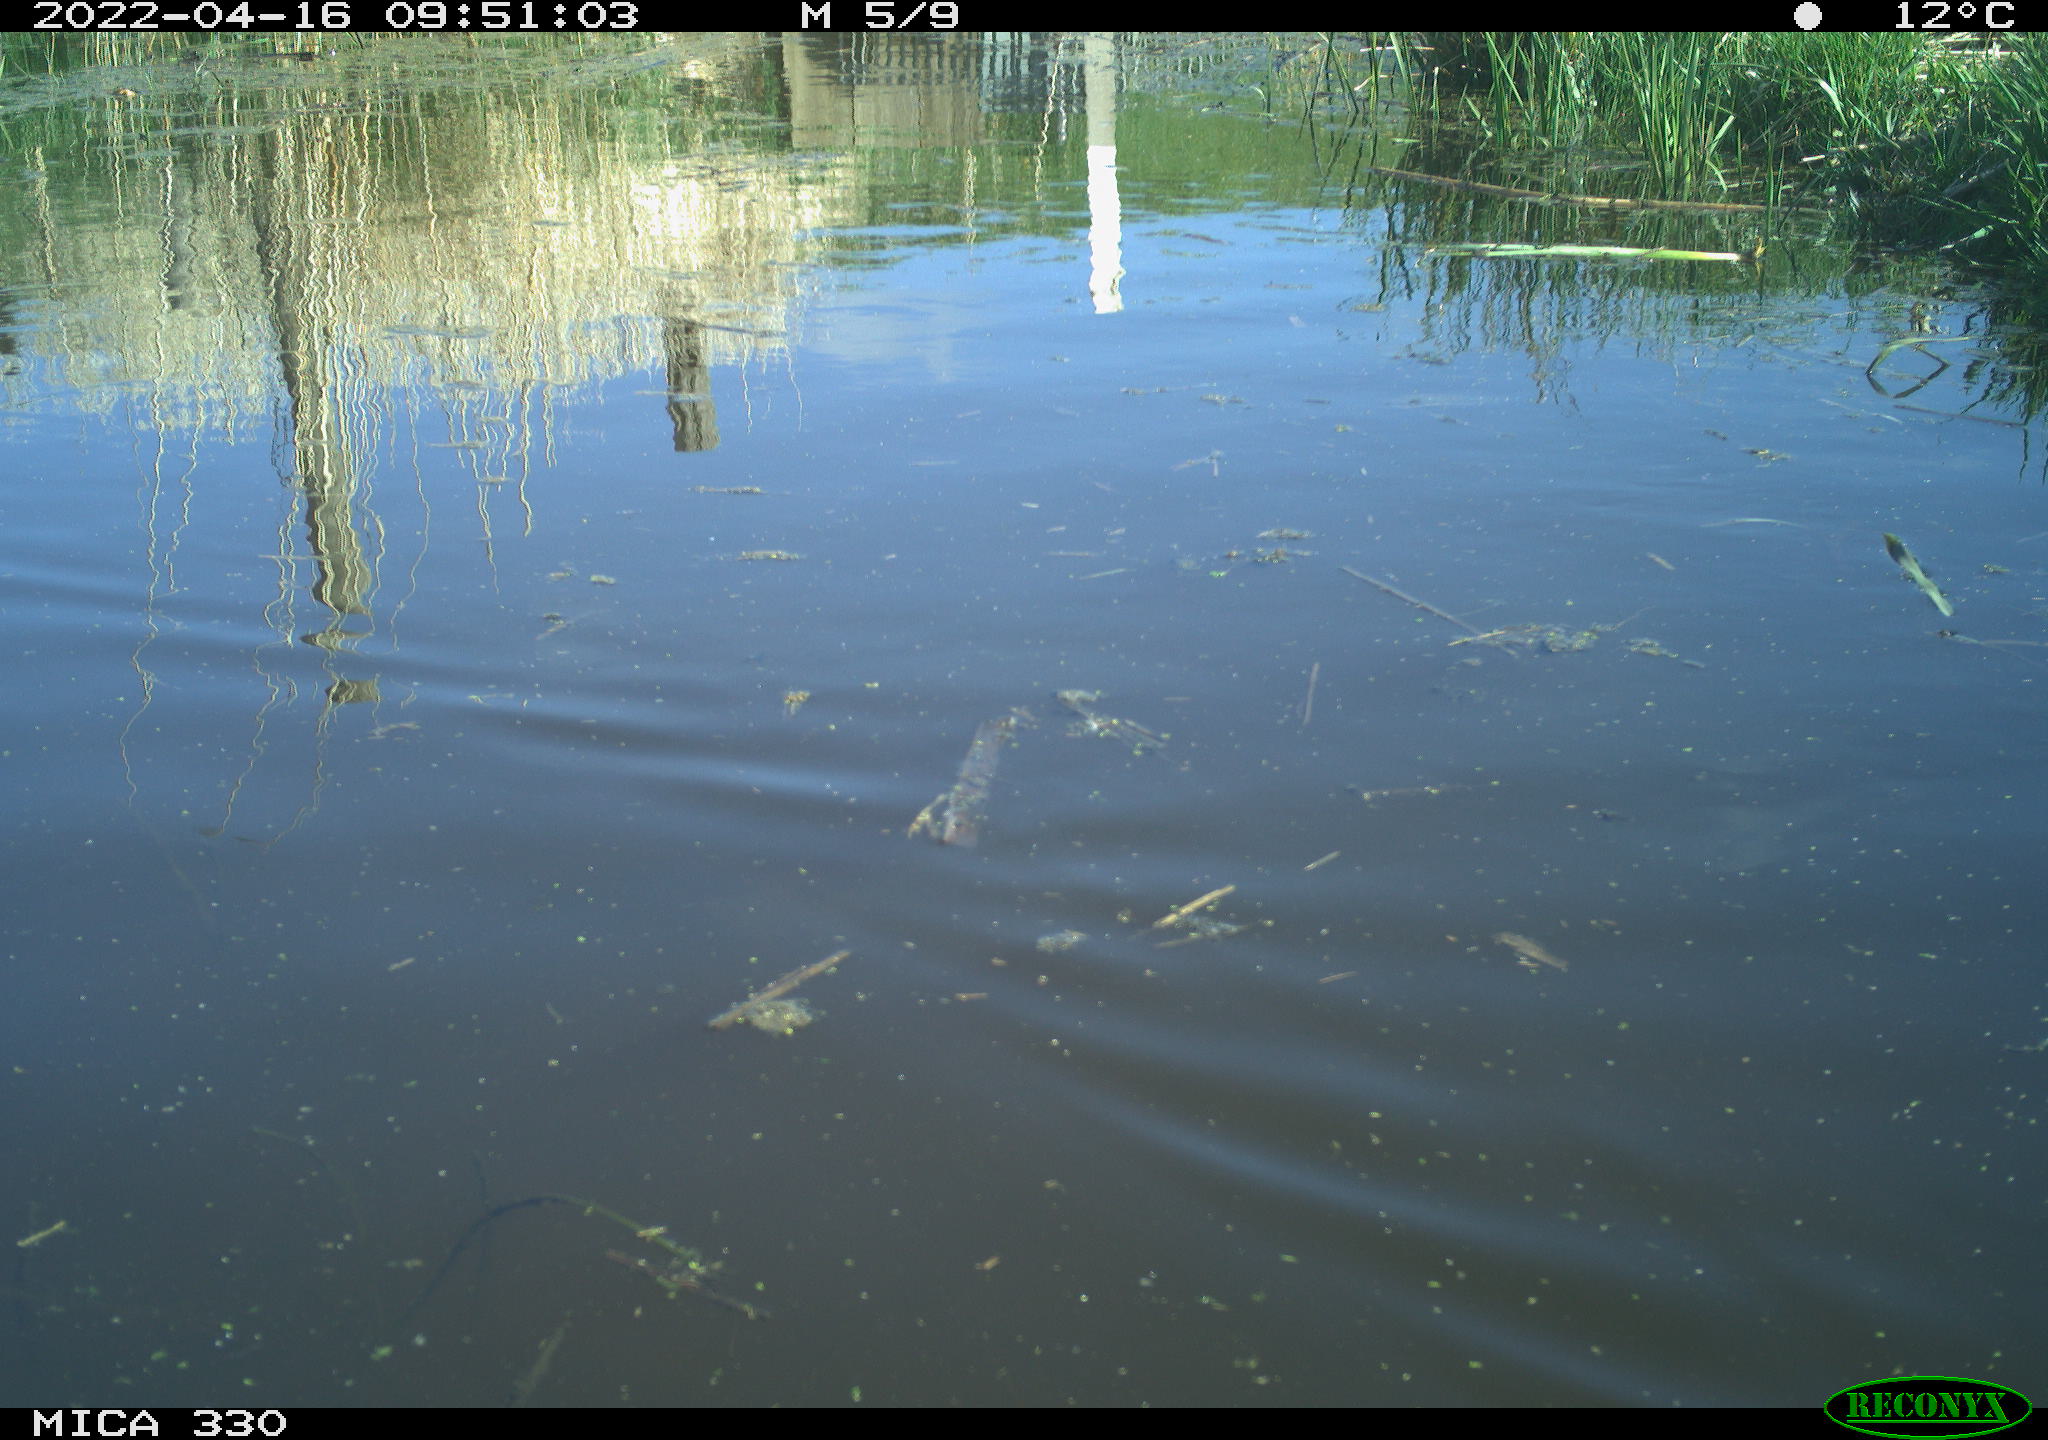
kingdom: Animalia
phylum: Chordata
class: Aves
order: Anseriformes
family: Anatidae
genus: Anas
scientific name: Anas platyrhynchos
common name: Mallard
